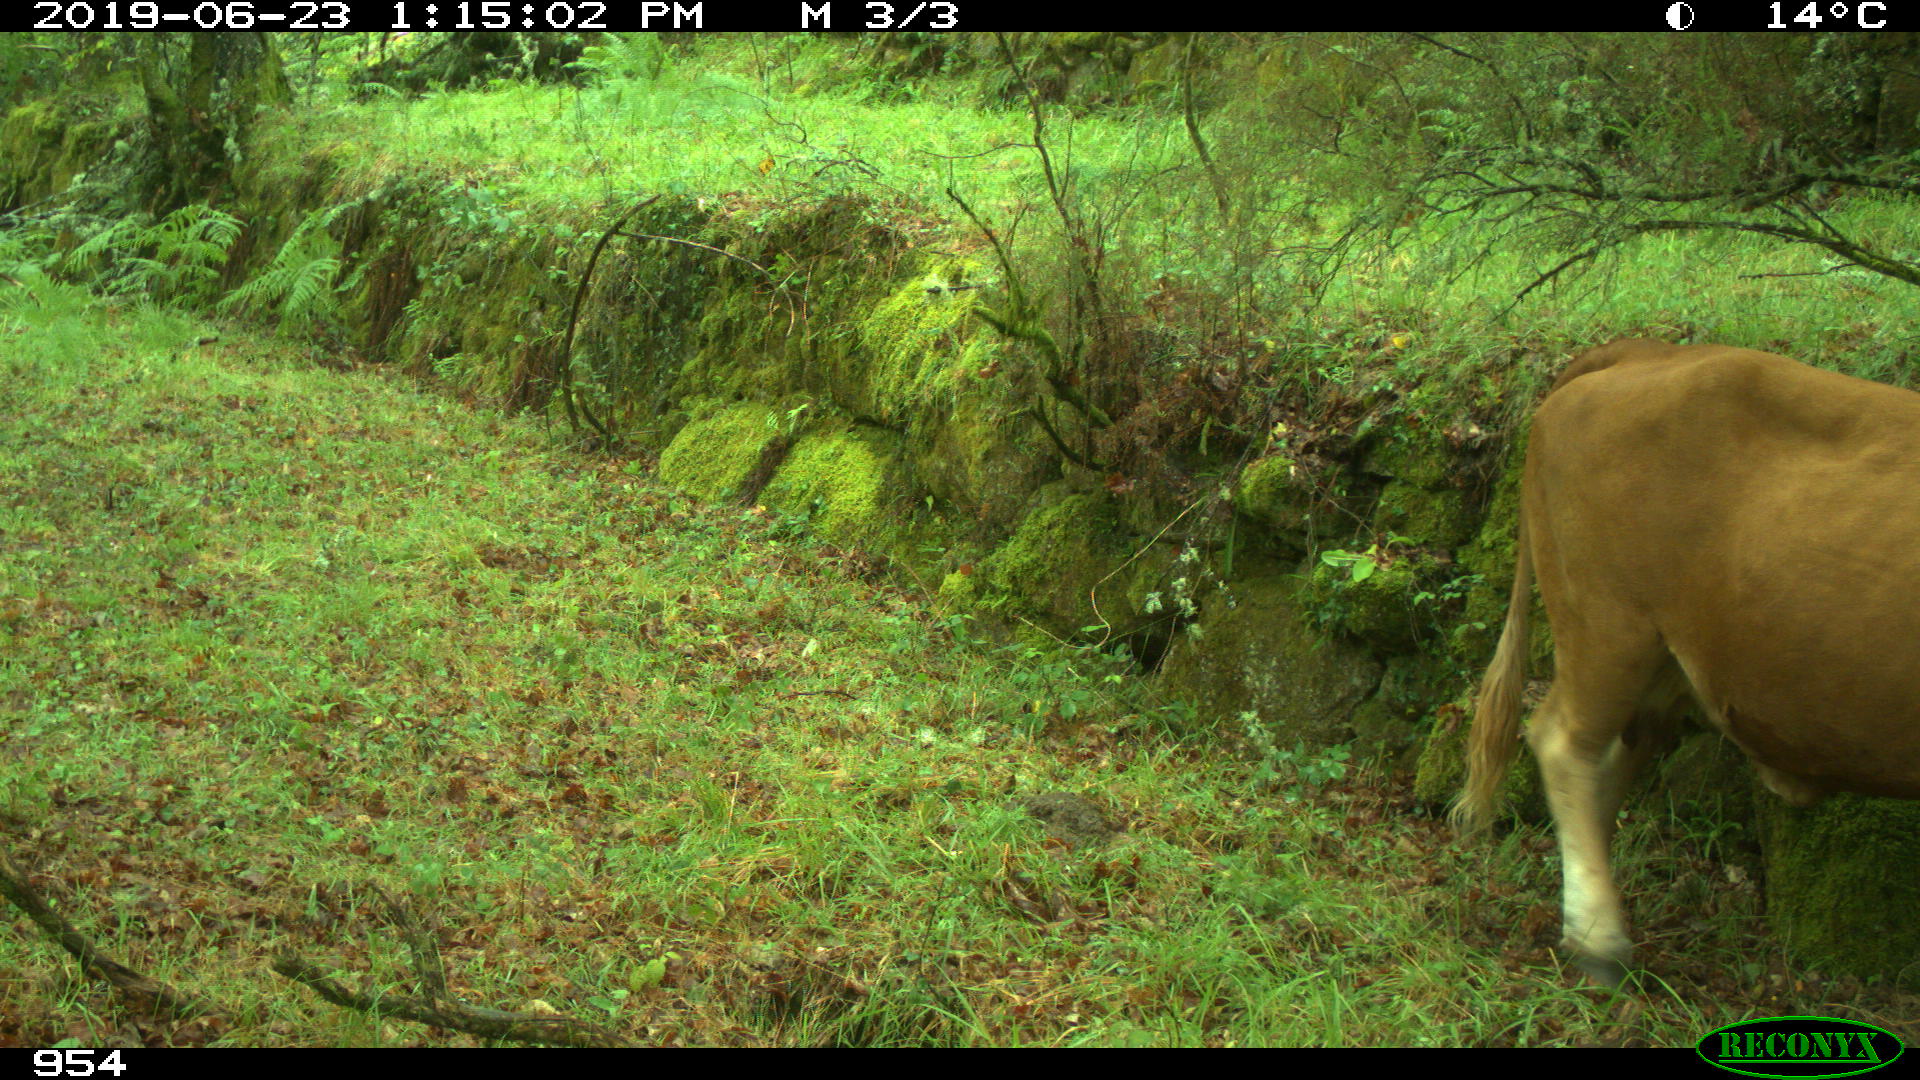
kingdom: Animalia
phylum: Chordata
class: Mammalia
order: Artiodactyla
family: Bovidae
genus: Bos
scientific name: Bos taurus
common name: Domesticated cattle
